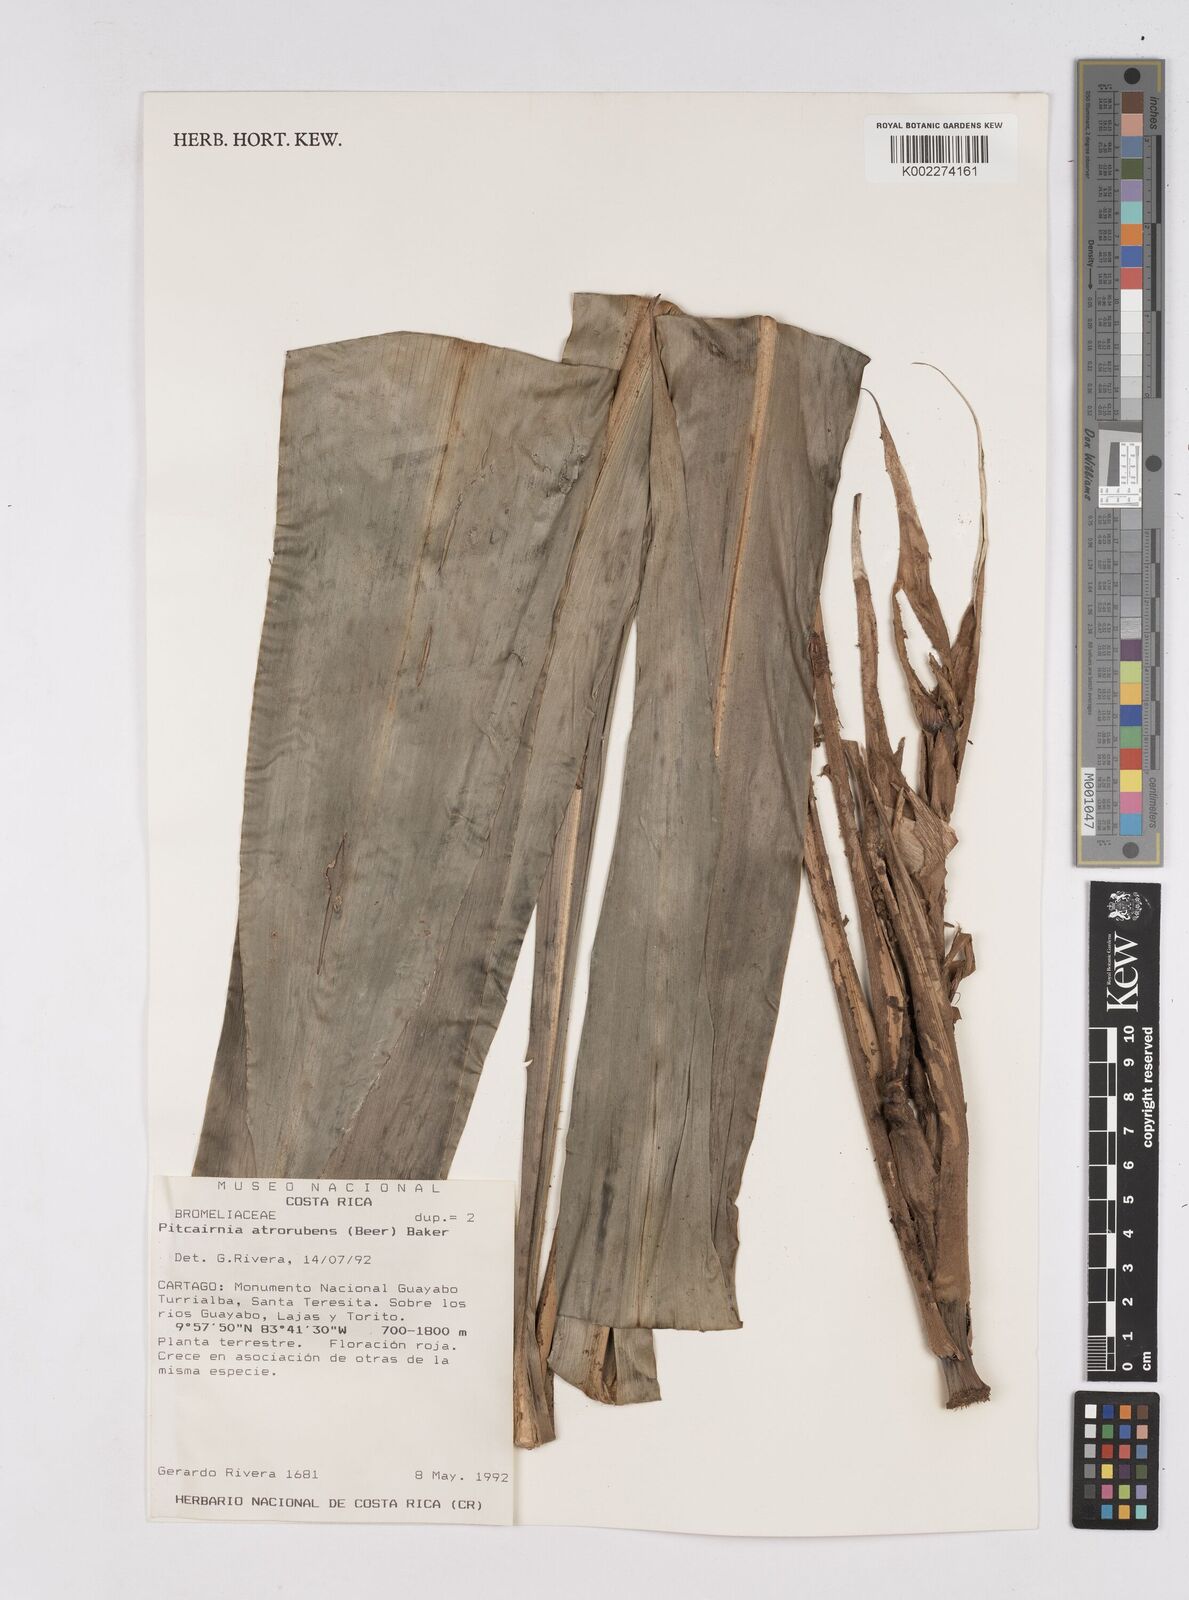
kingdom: Plantae
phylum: Tracheophyta
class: Liliopsida
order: Poales
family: Bromeliaceae
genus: Pitcairnia
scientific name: Pitcairnia atrorubens
